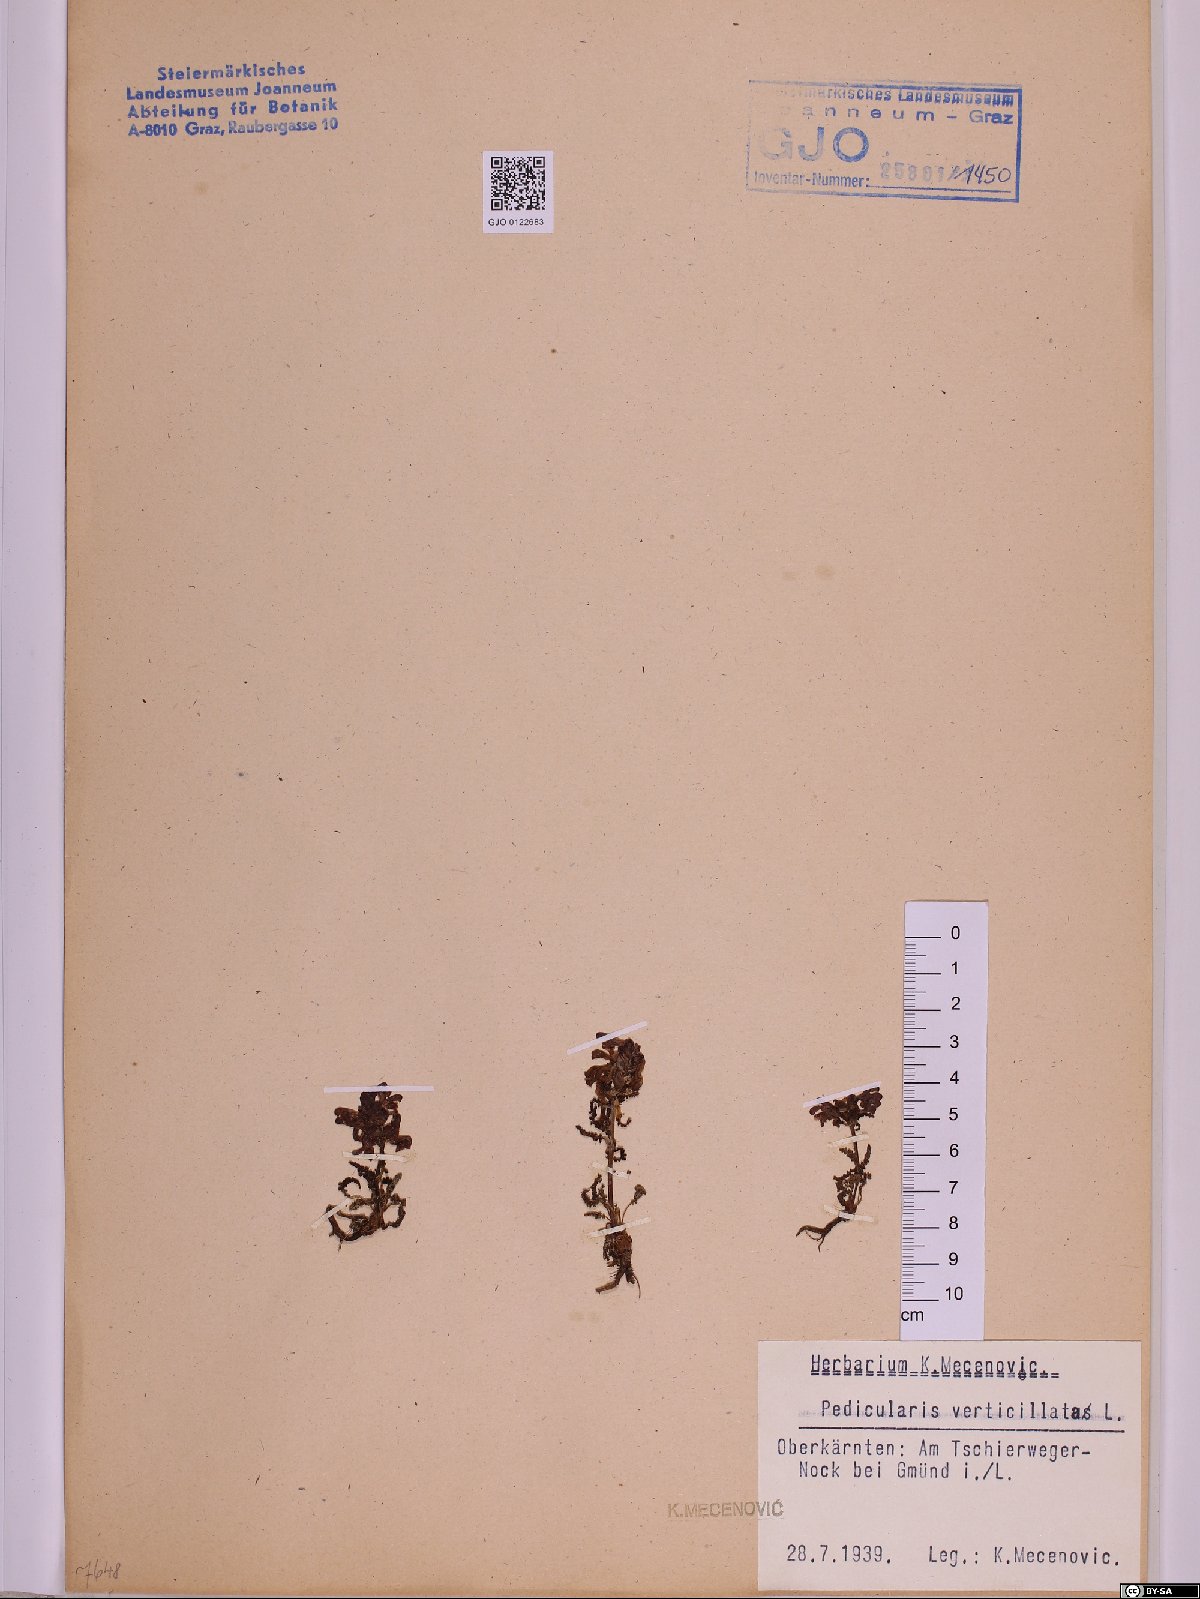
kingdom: Plantae
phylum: Tracheophyta
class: Magnoliopsida
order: Lamiales
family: Orobanchaceae
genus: Pedicularis
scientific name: Pedicularis verticillata
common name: Whorled lousewort
